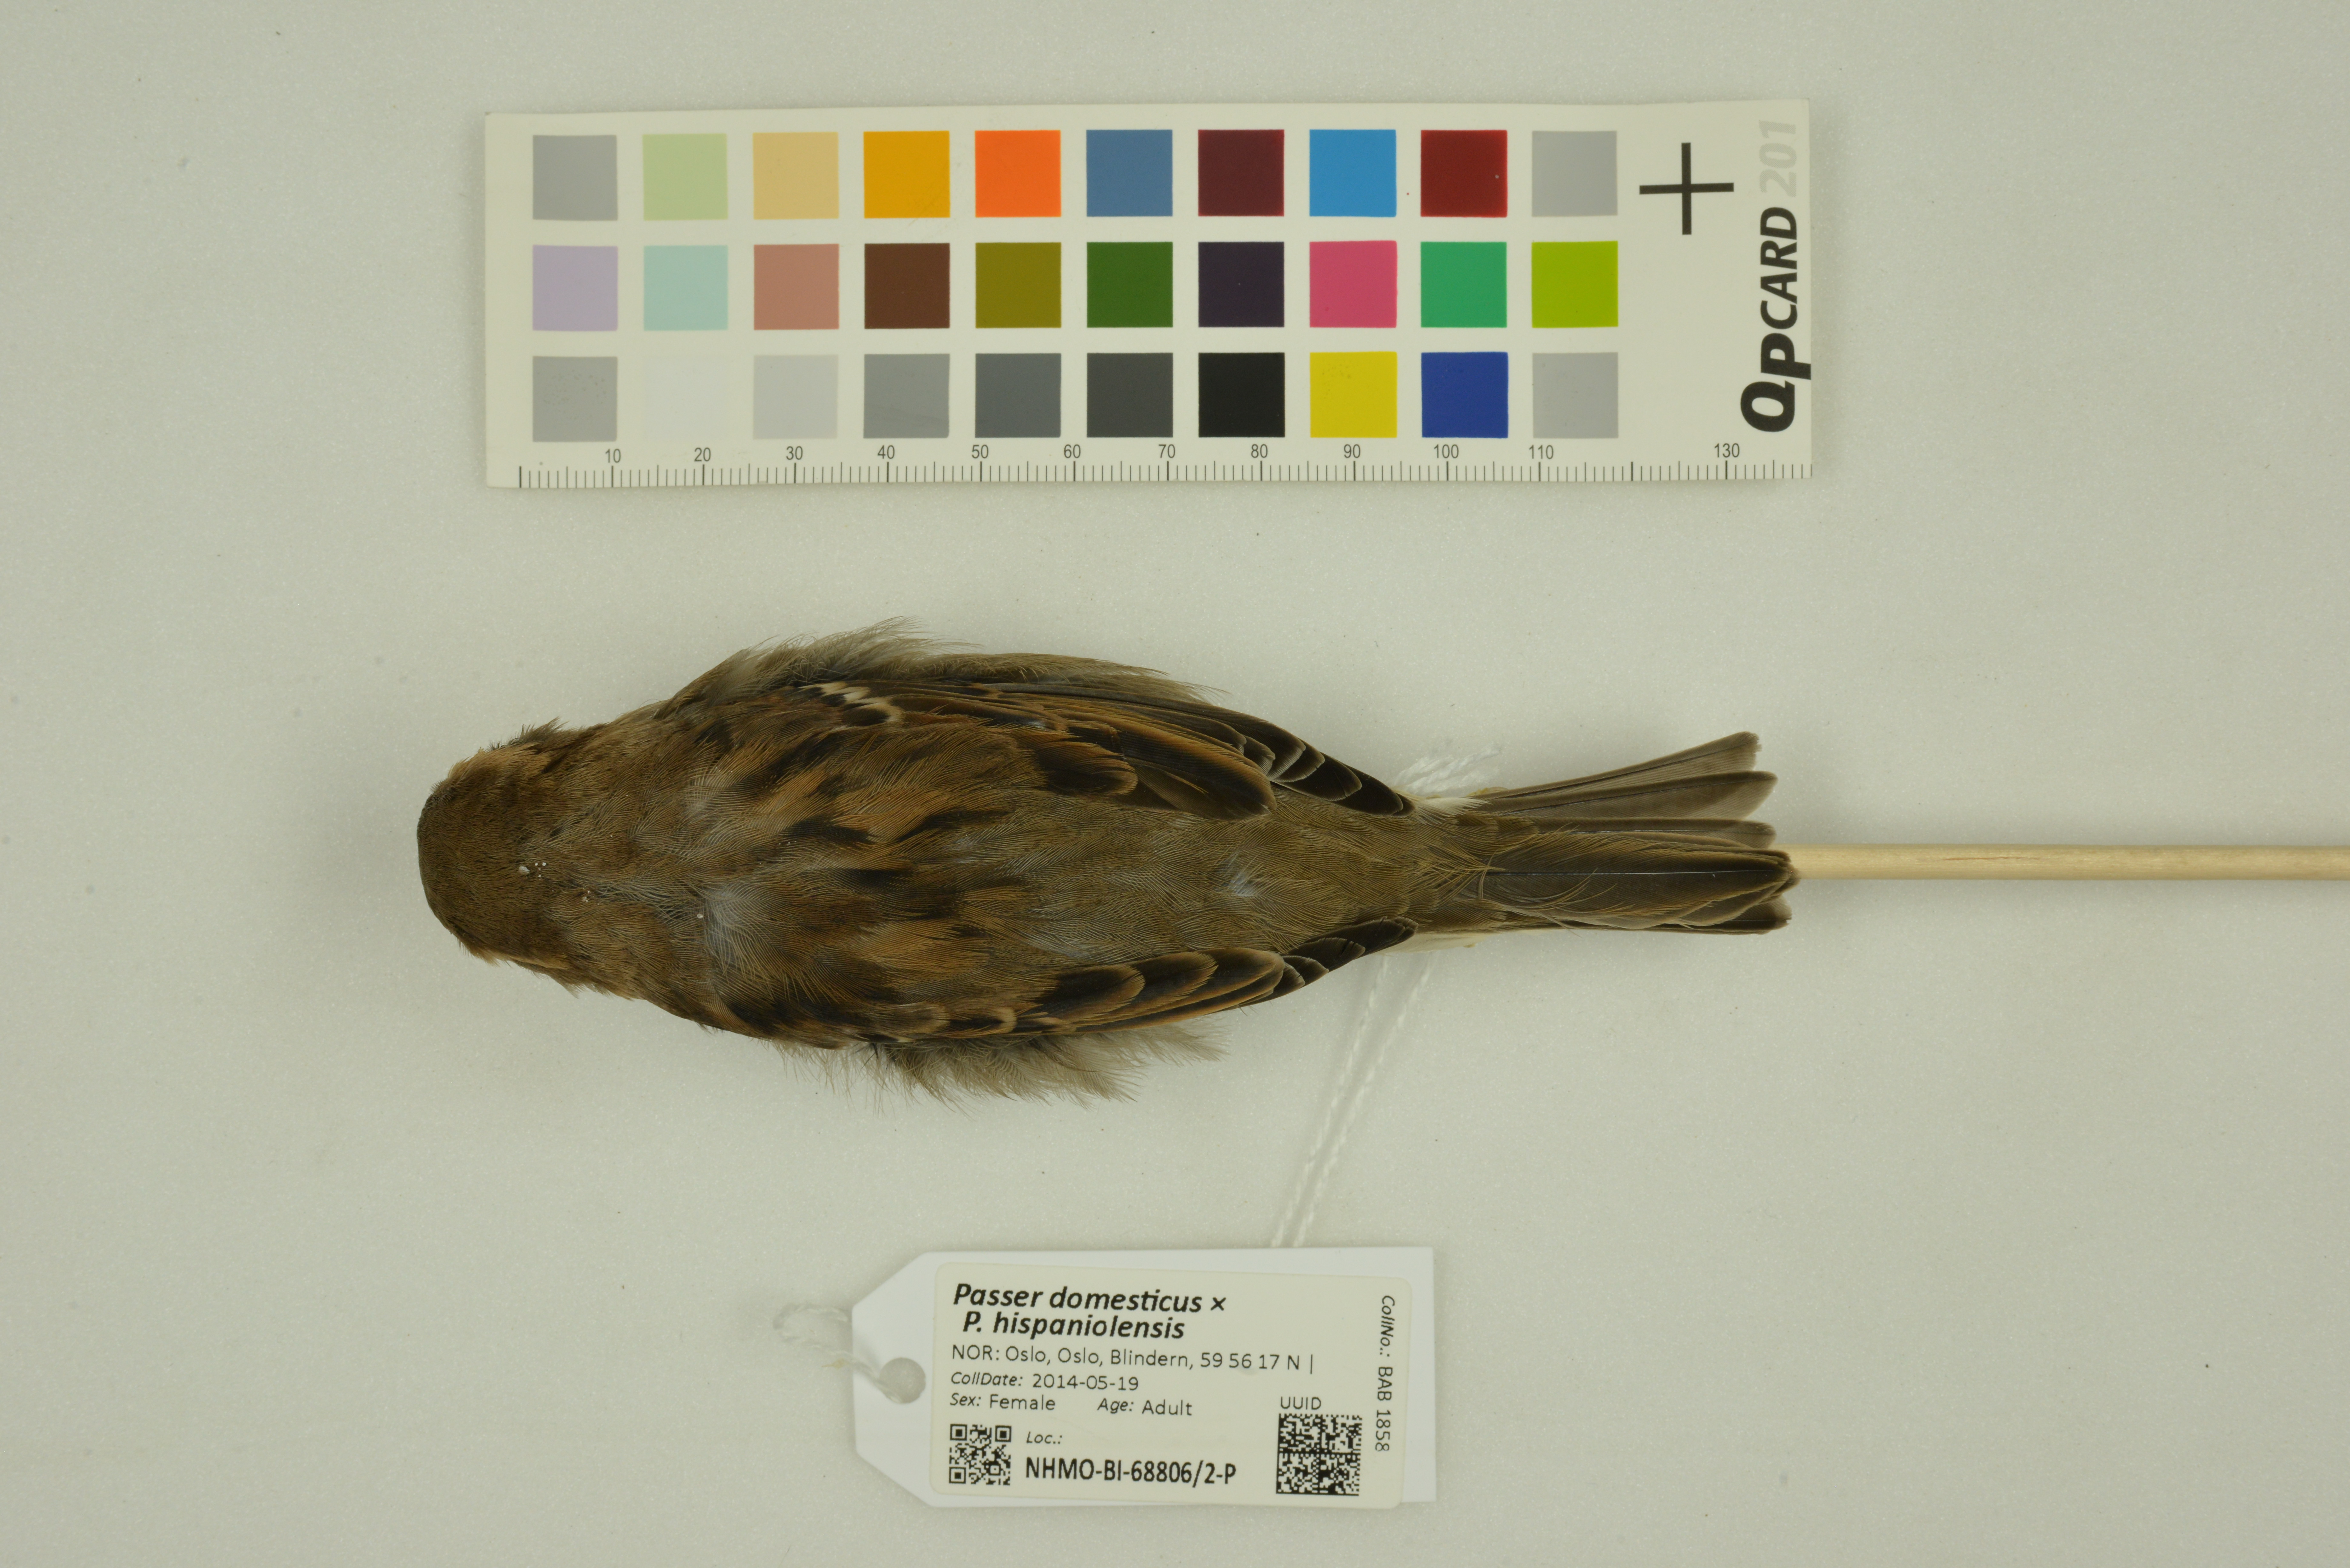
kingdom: Animalia
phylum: Chordata
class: Aves
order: Passeriformes
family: Passeridae
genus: Passer
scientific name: Passer
